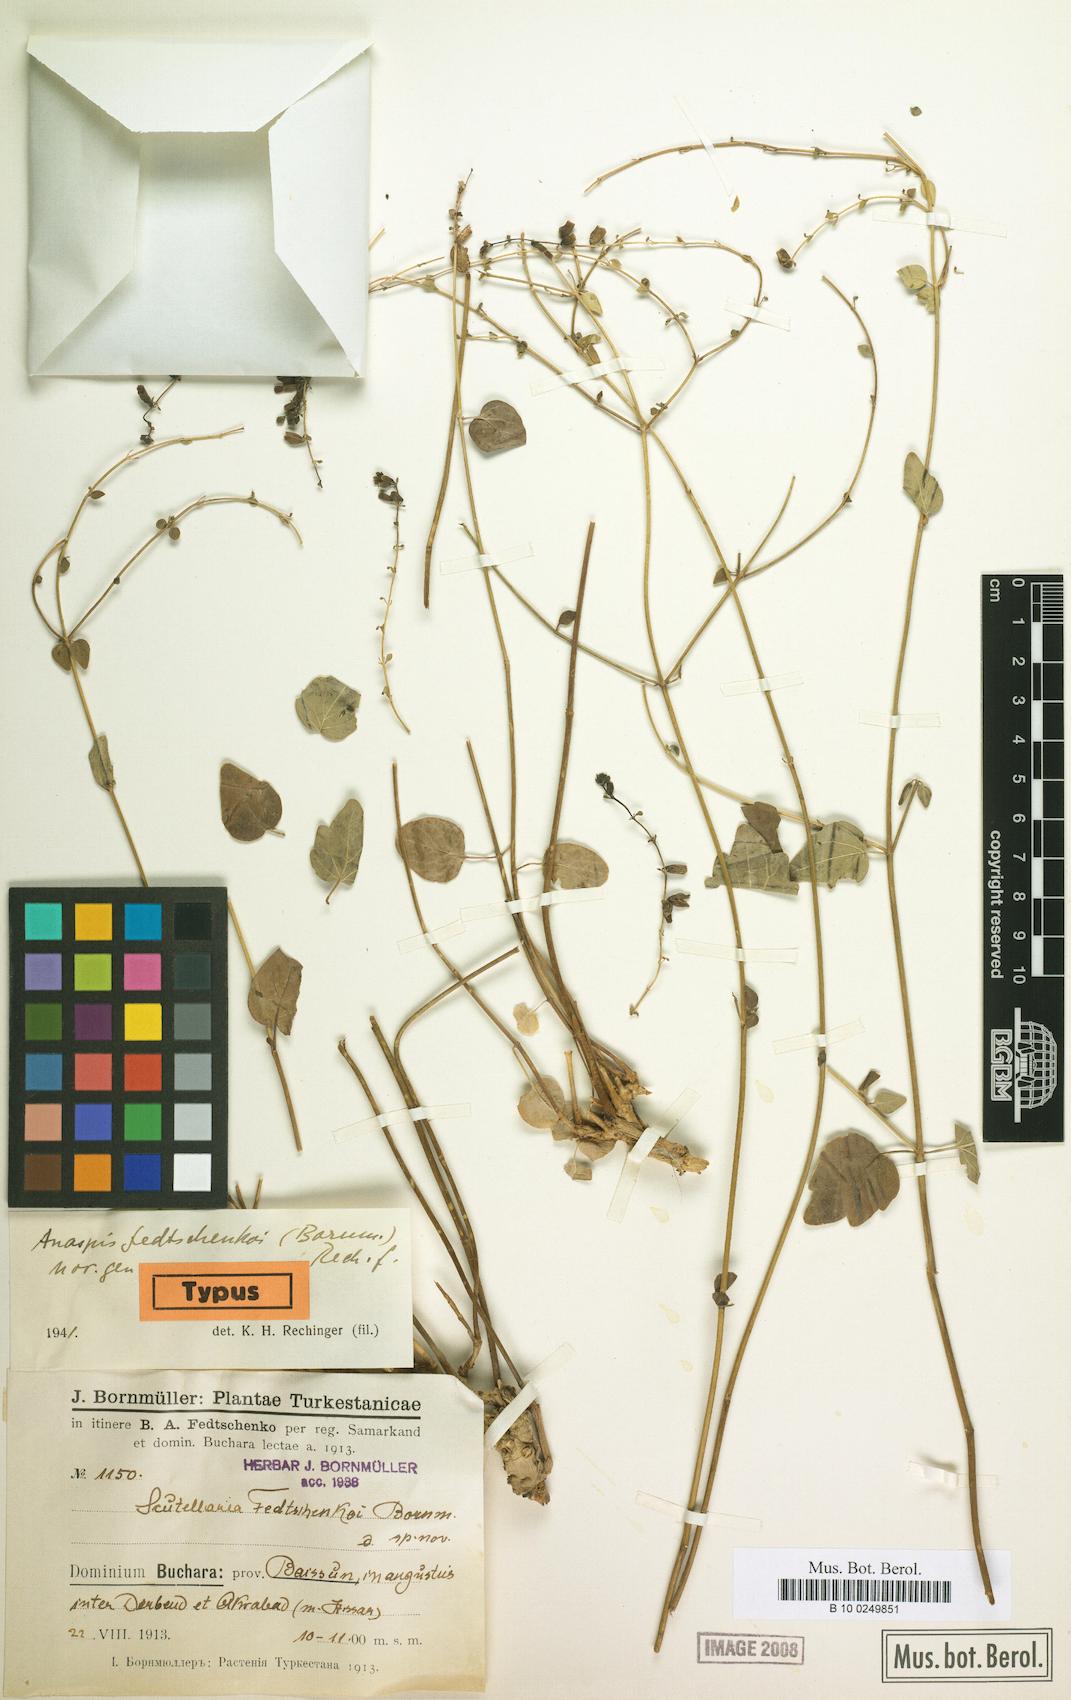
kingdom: Plantae
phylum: Tracheophyta
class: Magnoliopsida
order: Lamiales
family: Lamiaceae
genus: Scutellaria
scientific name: Scutellaria fedtschenkoi
